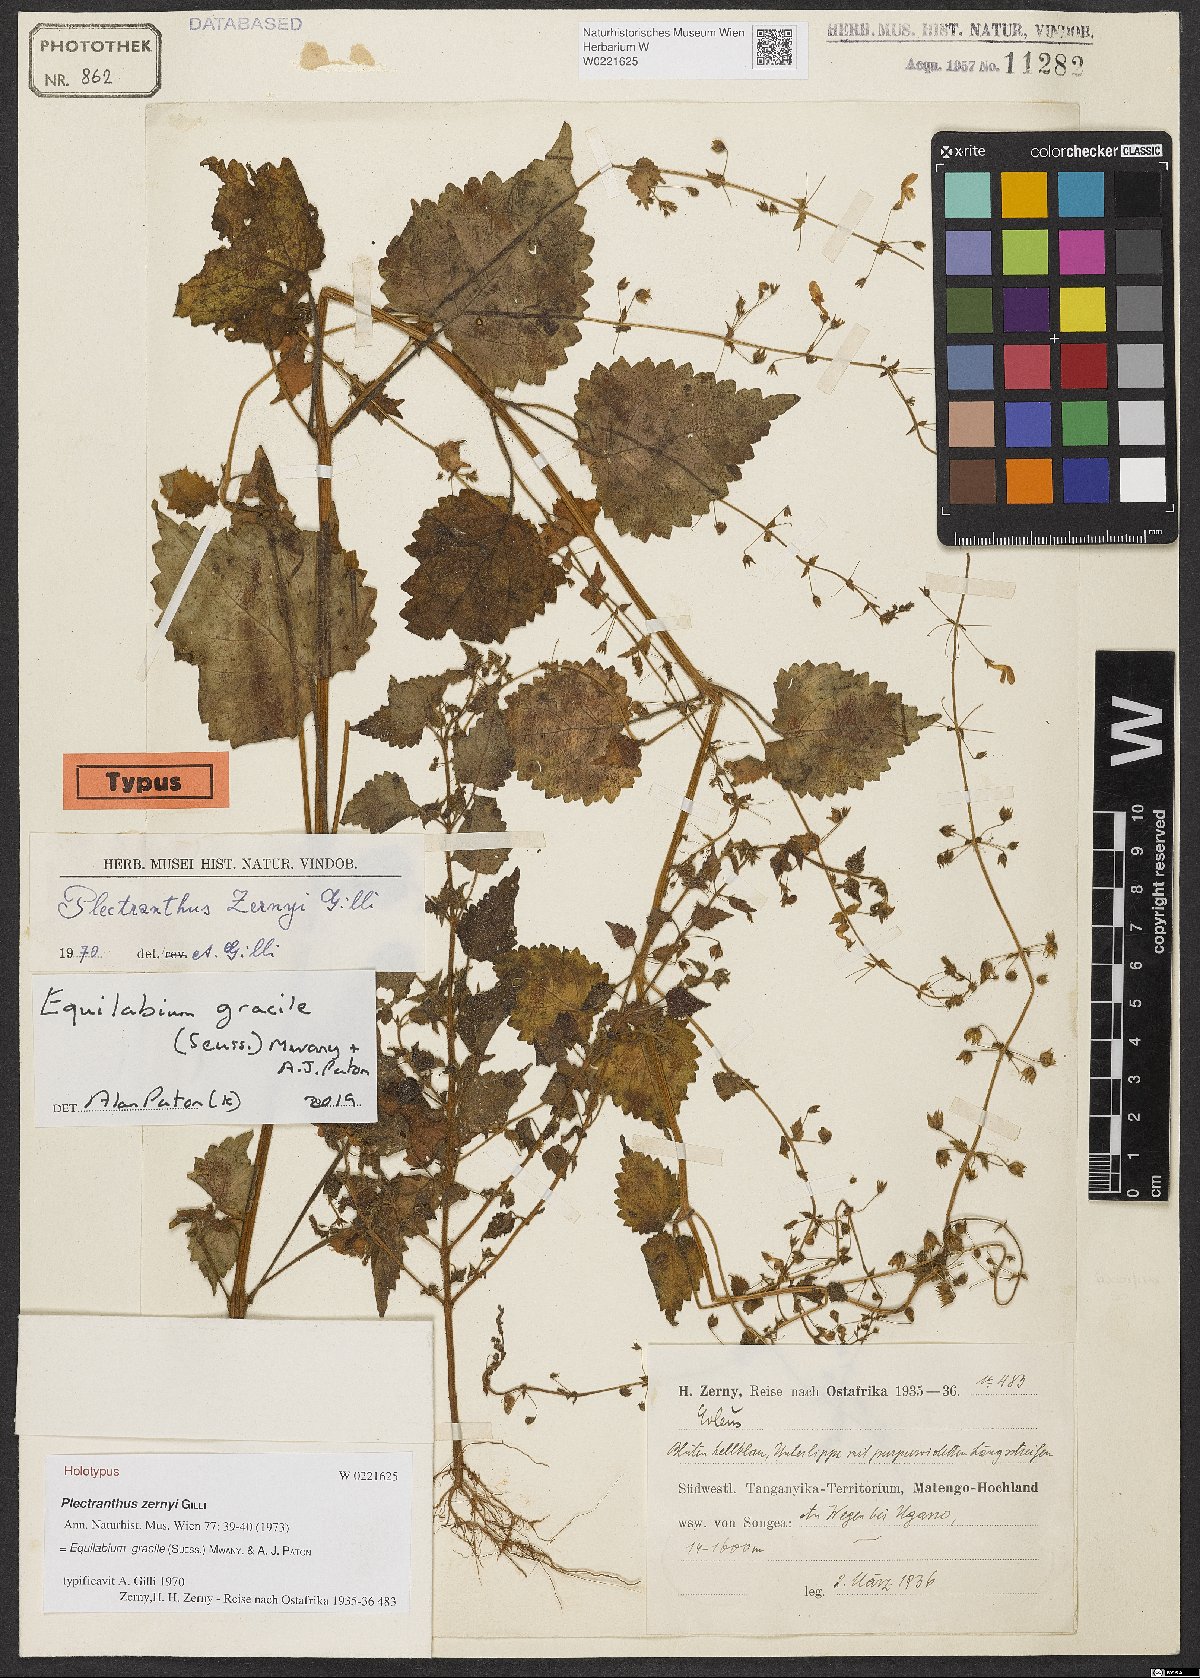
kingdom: Plantae
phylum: Tracheophyta
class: Magnoliopsida
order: Lamiales
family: Lamiaceae
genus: Equilabium
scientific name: Equilabium gracile
